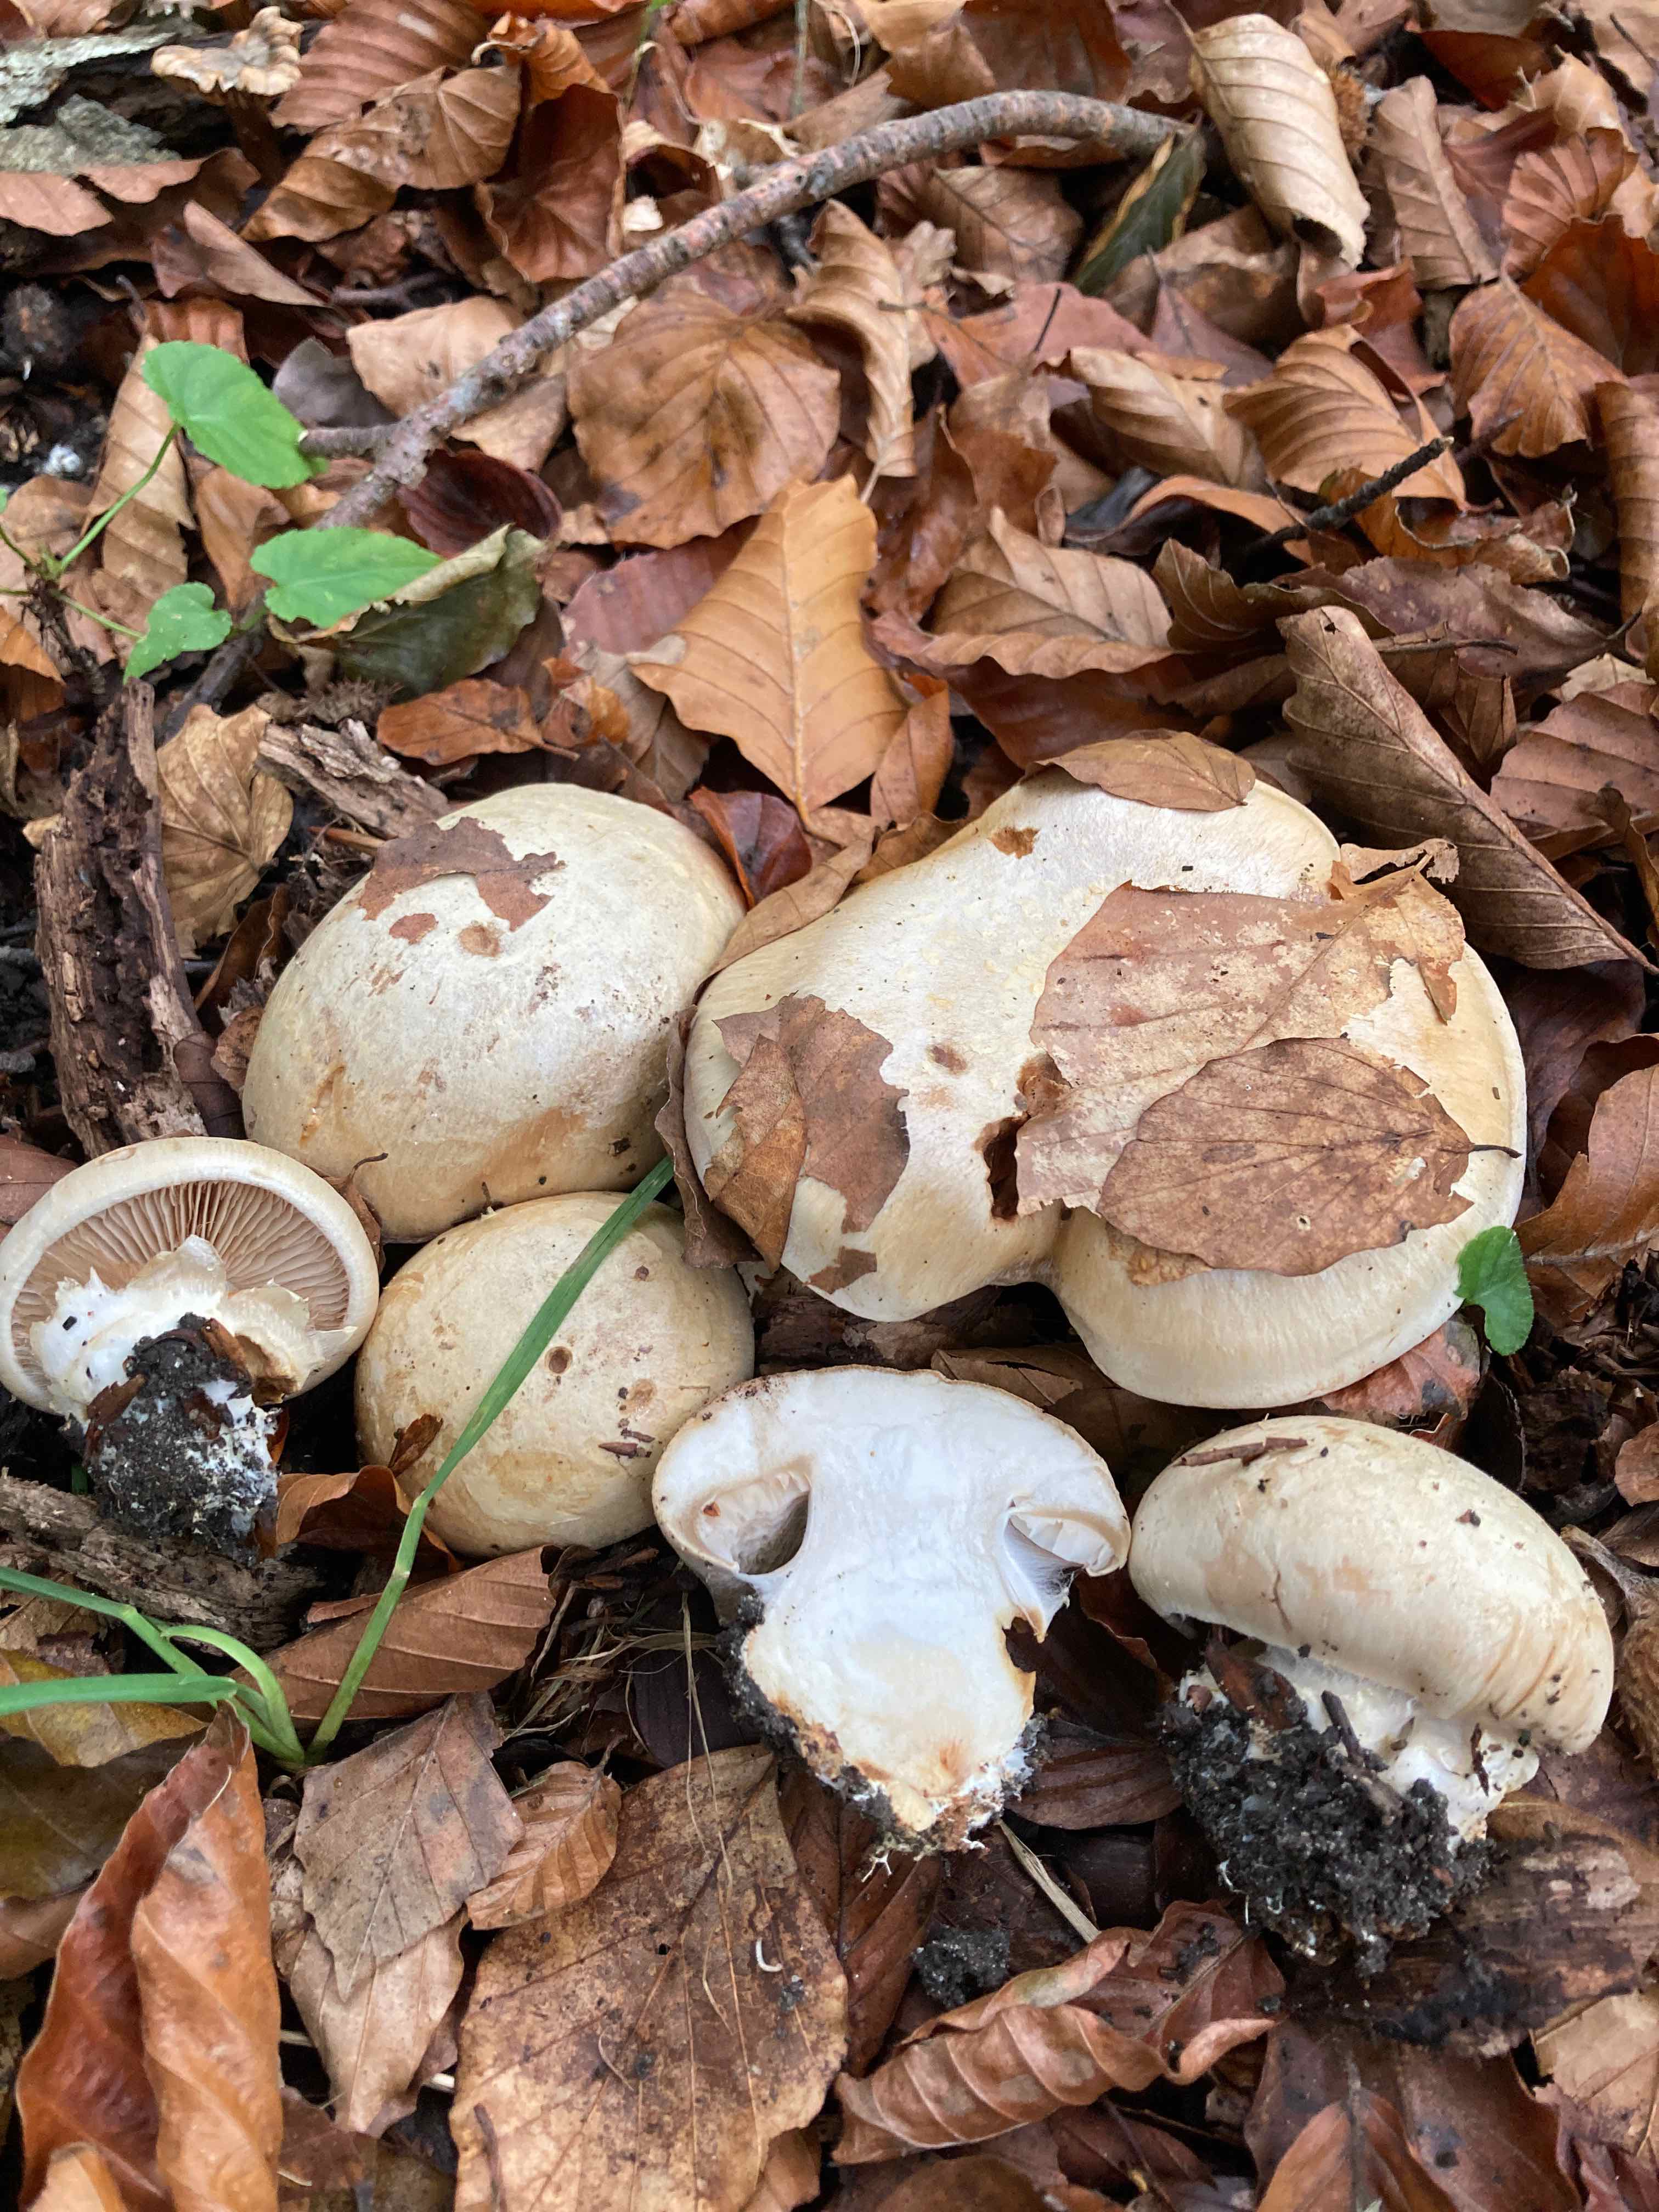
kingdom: Fungi
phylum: Basidiomycota
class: Agaricomycetes
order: Agaricales
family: Cortinariaceae
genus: Cortinarius
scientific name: Cortinarius foetens
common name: stribet slørhat
